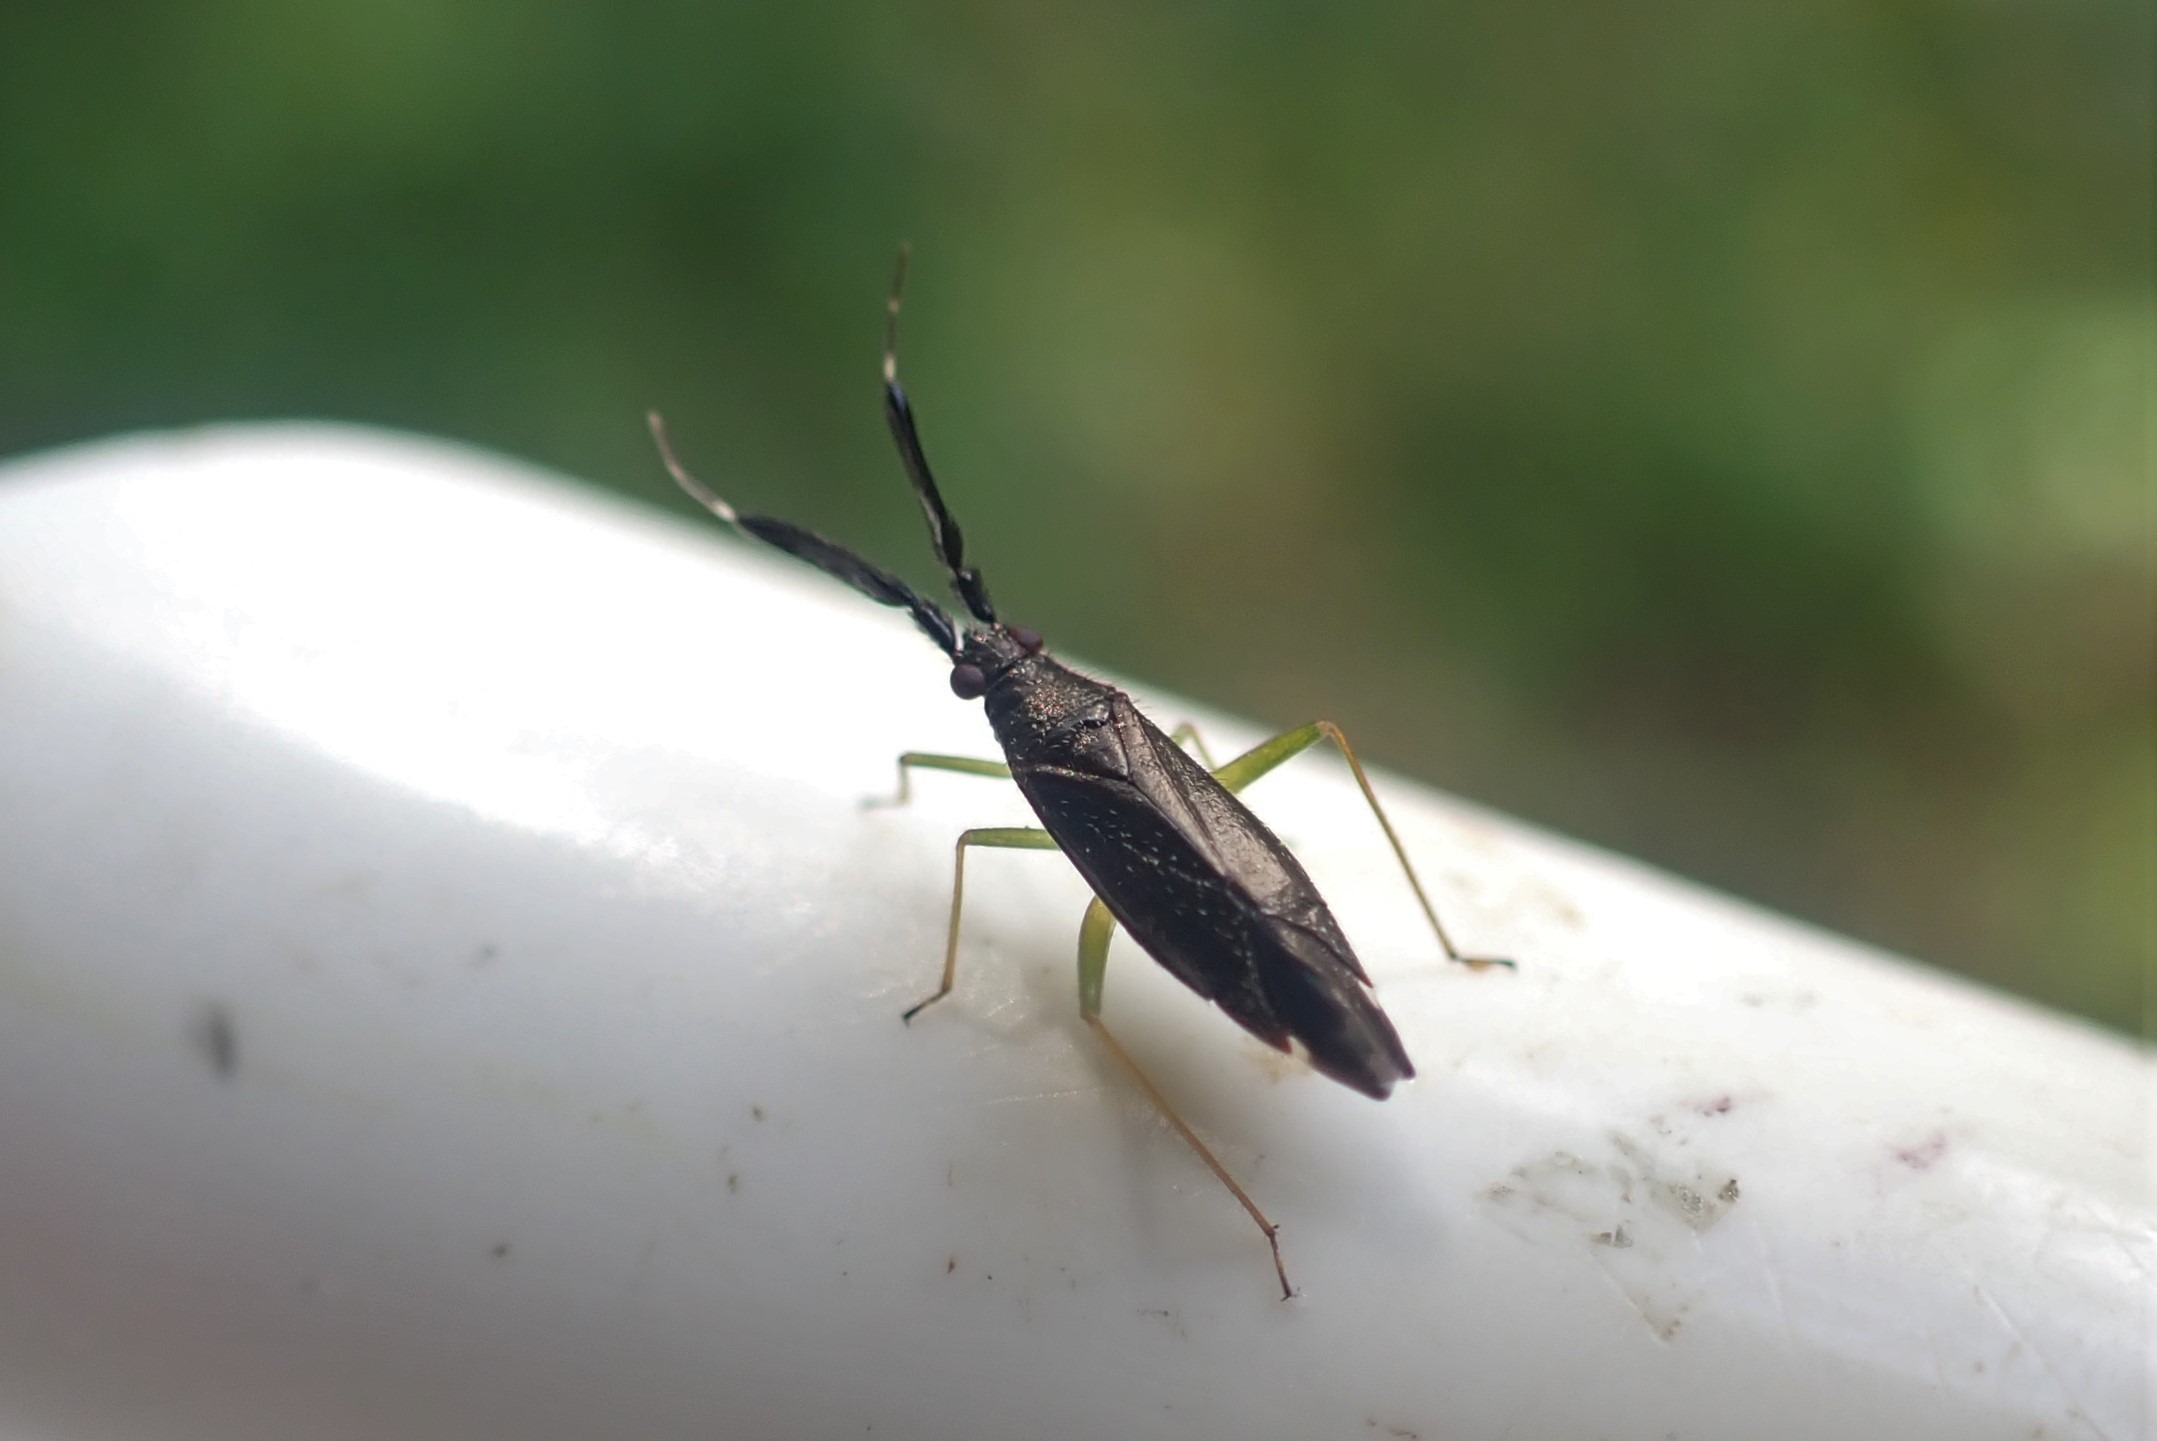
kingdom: Animalia
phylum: Arthropoda
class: Insecta
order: Hemiptera
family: Miridae
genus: Heterotoma
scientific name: Heterotoma planicornis
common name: Køllehornet blomstertæge
